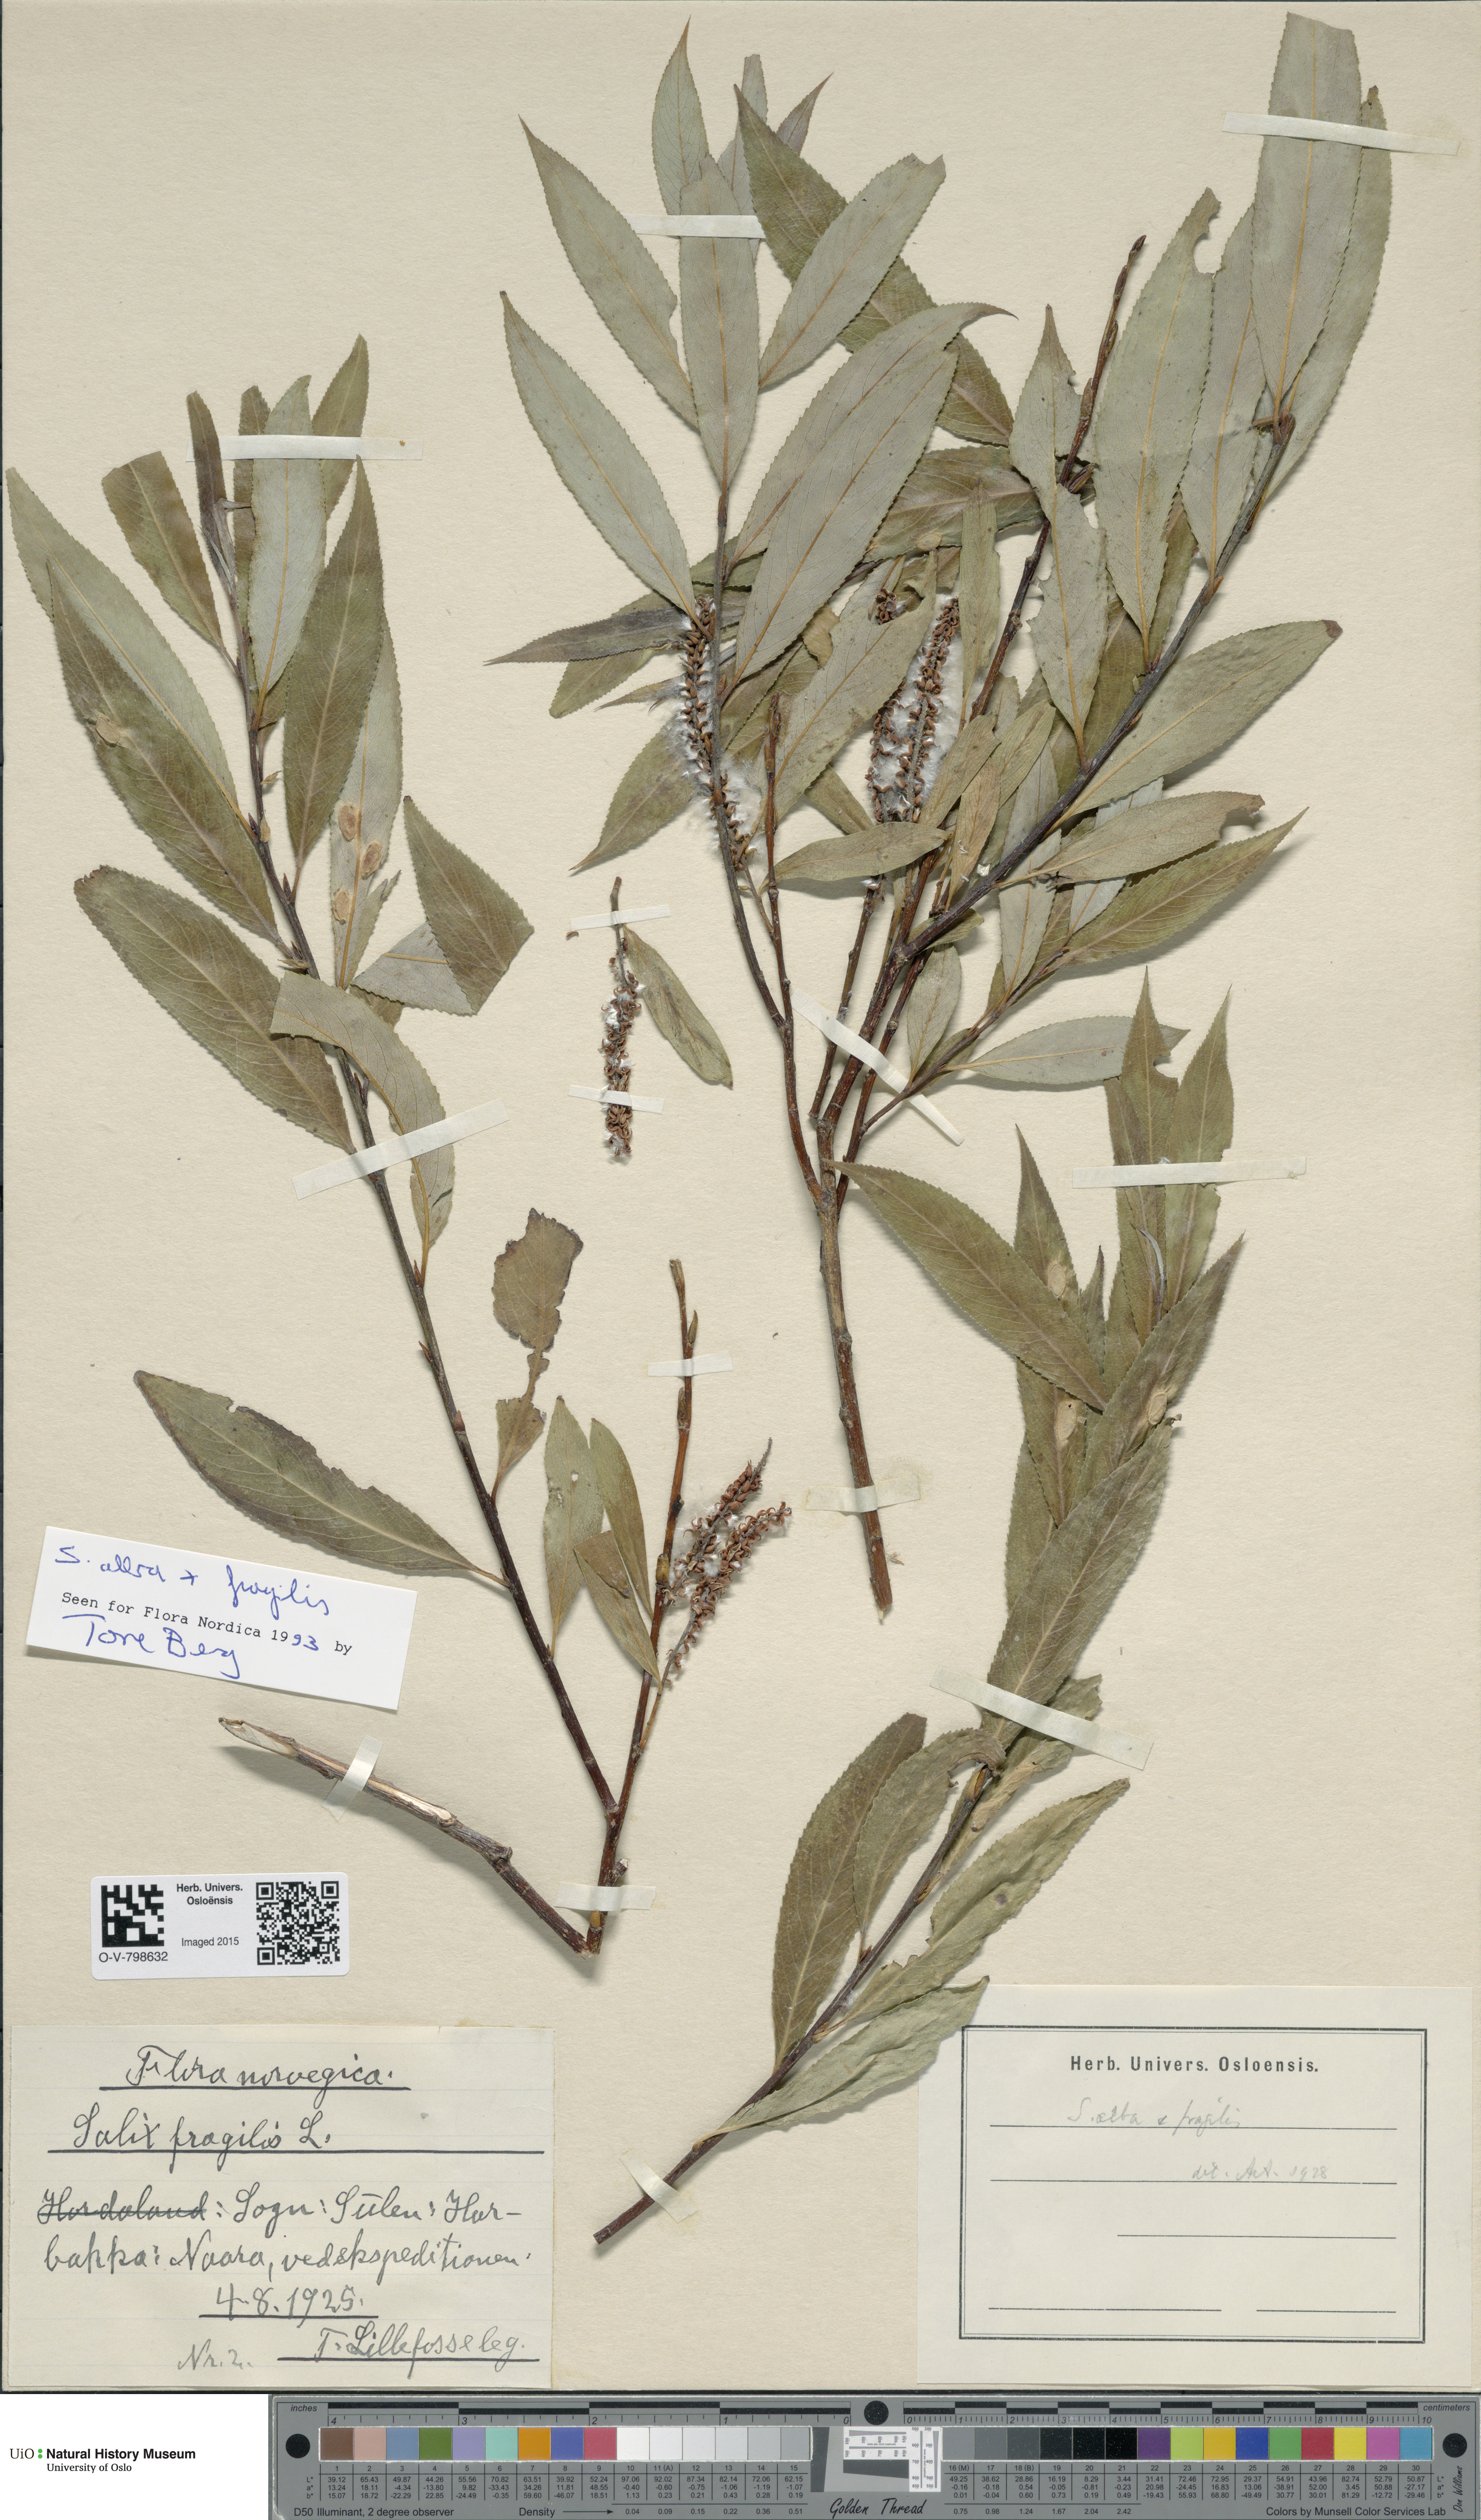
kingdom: Plantae
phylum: Tracheophyta
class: Magnoliopsida
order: Malpighiales
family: Salicaceae
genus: Salix
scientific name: Salix
